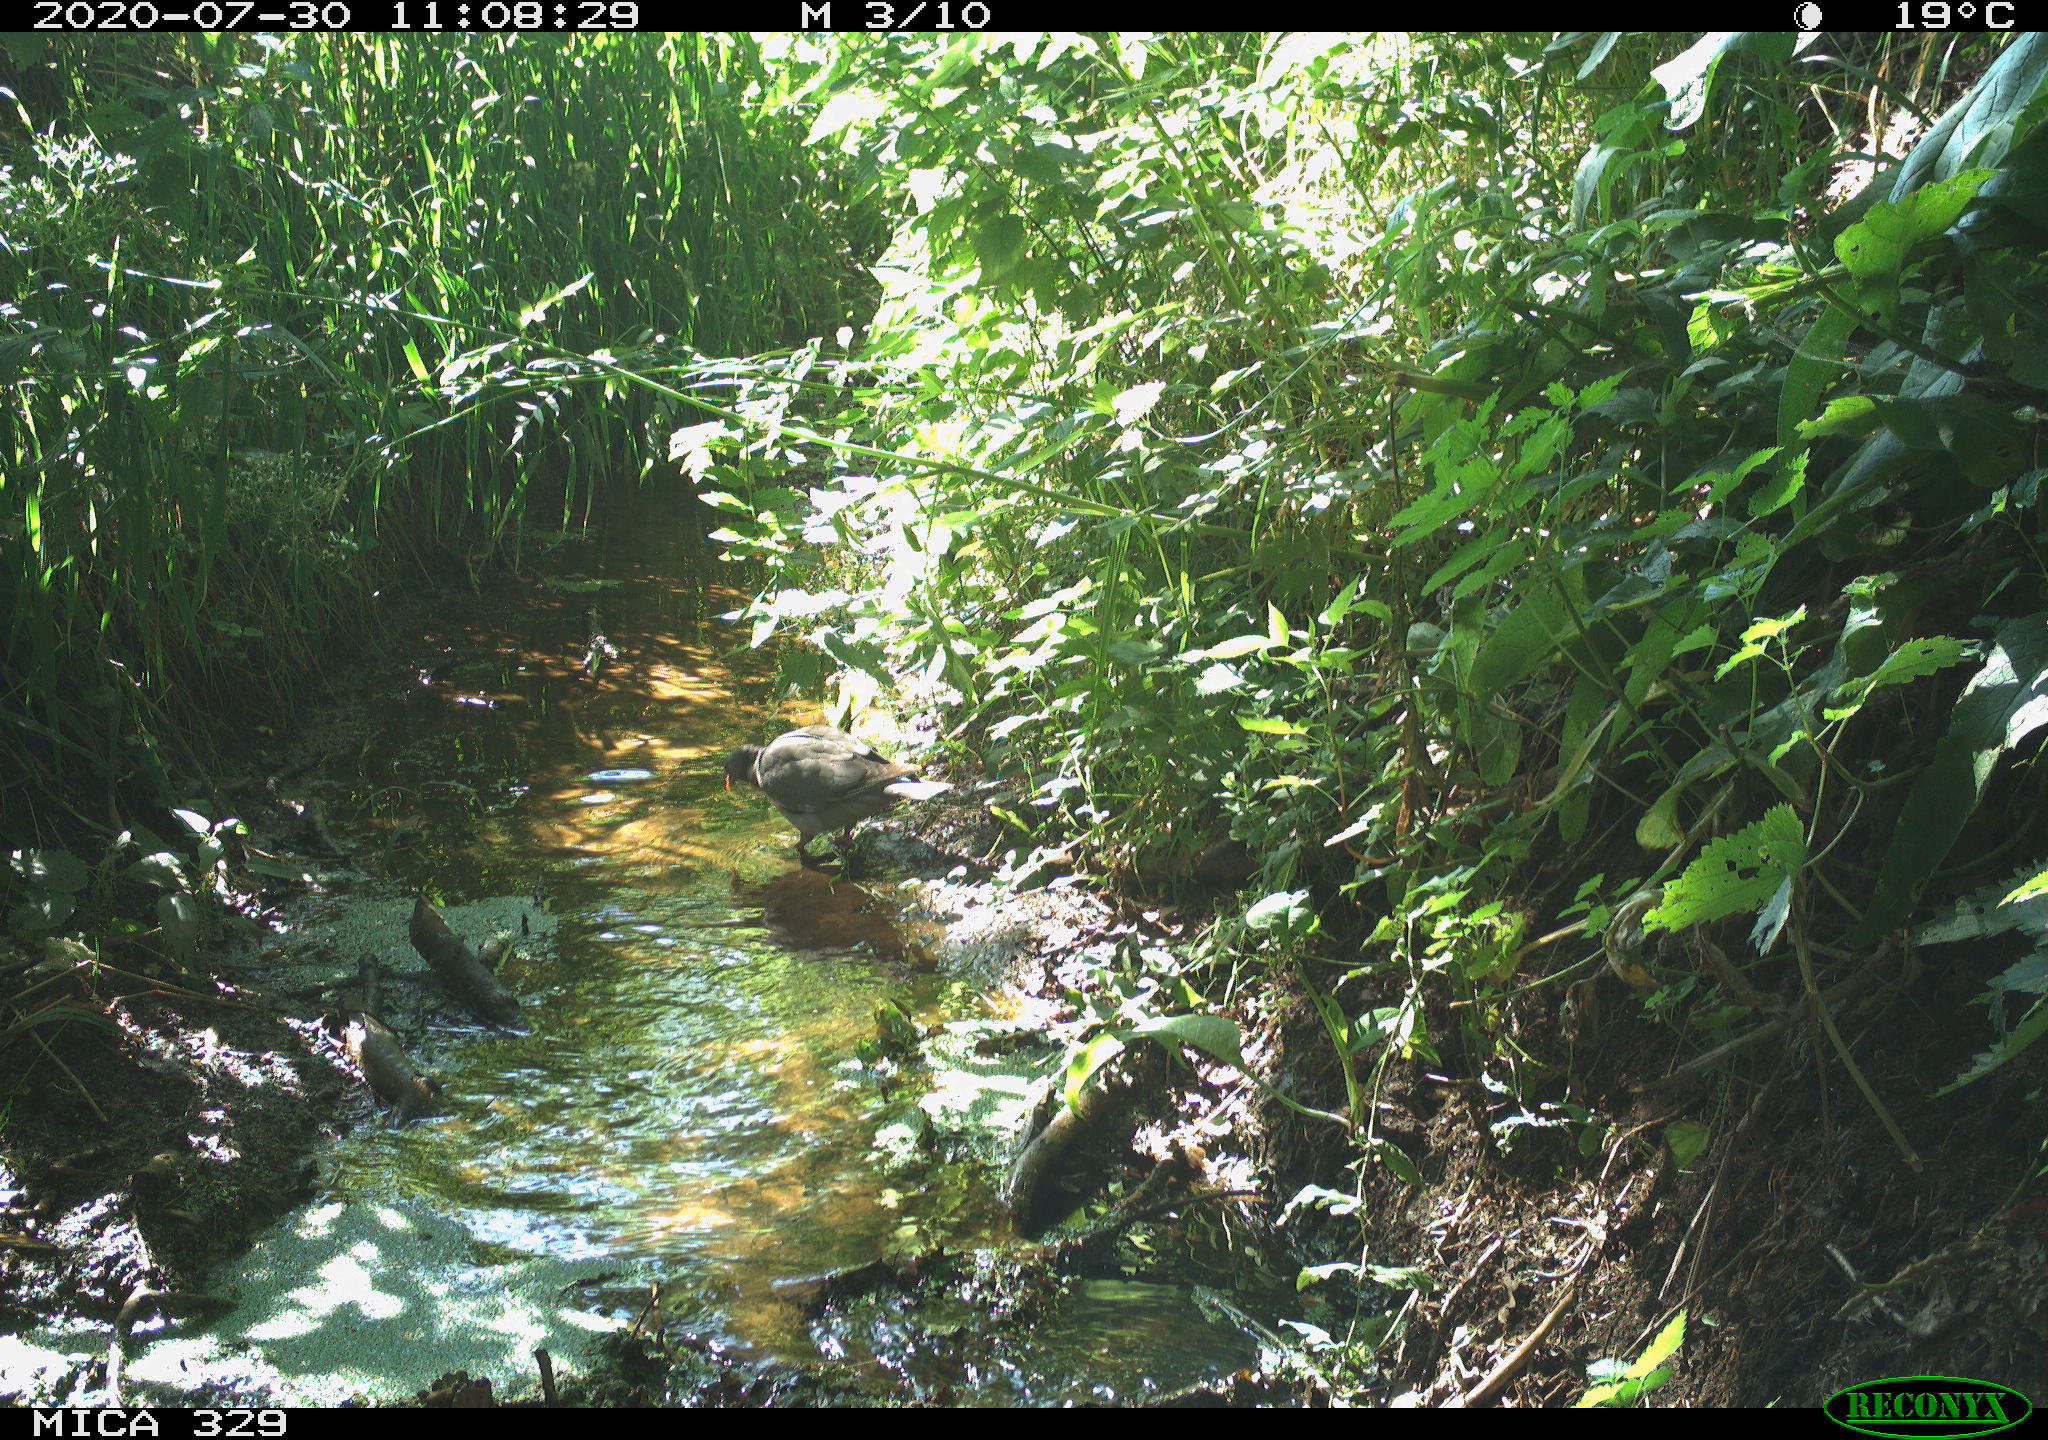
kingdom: Animalia
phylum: Chordata
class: Aves
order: Columbiformes
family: Columbidae
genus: Columba
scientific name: Columba palumbus
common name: Common wood pigeon
